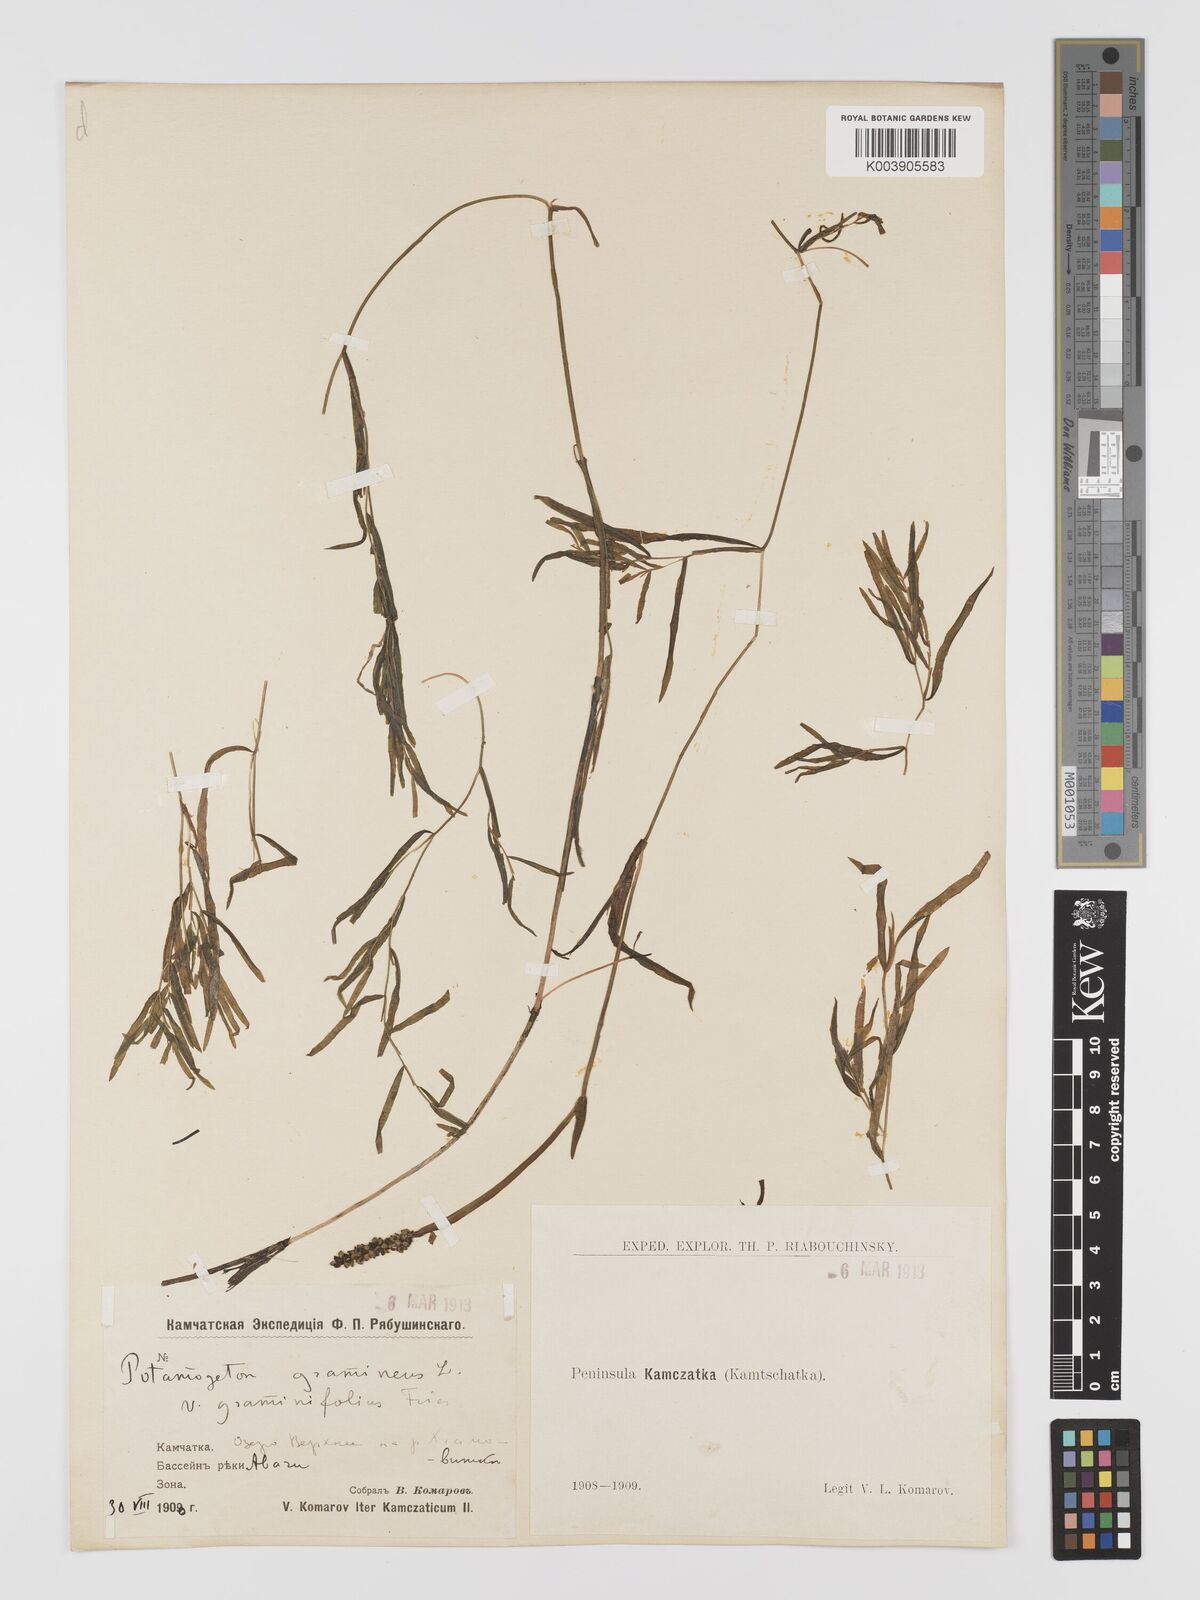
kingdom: Plantae
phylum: Tracheophyta
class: Liliopsida
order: Alismatales
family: Potamogetonaceae
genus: Potamogeton
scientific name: Potamogeton gramineus
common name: Various-leaved pondweed
